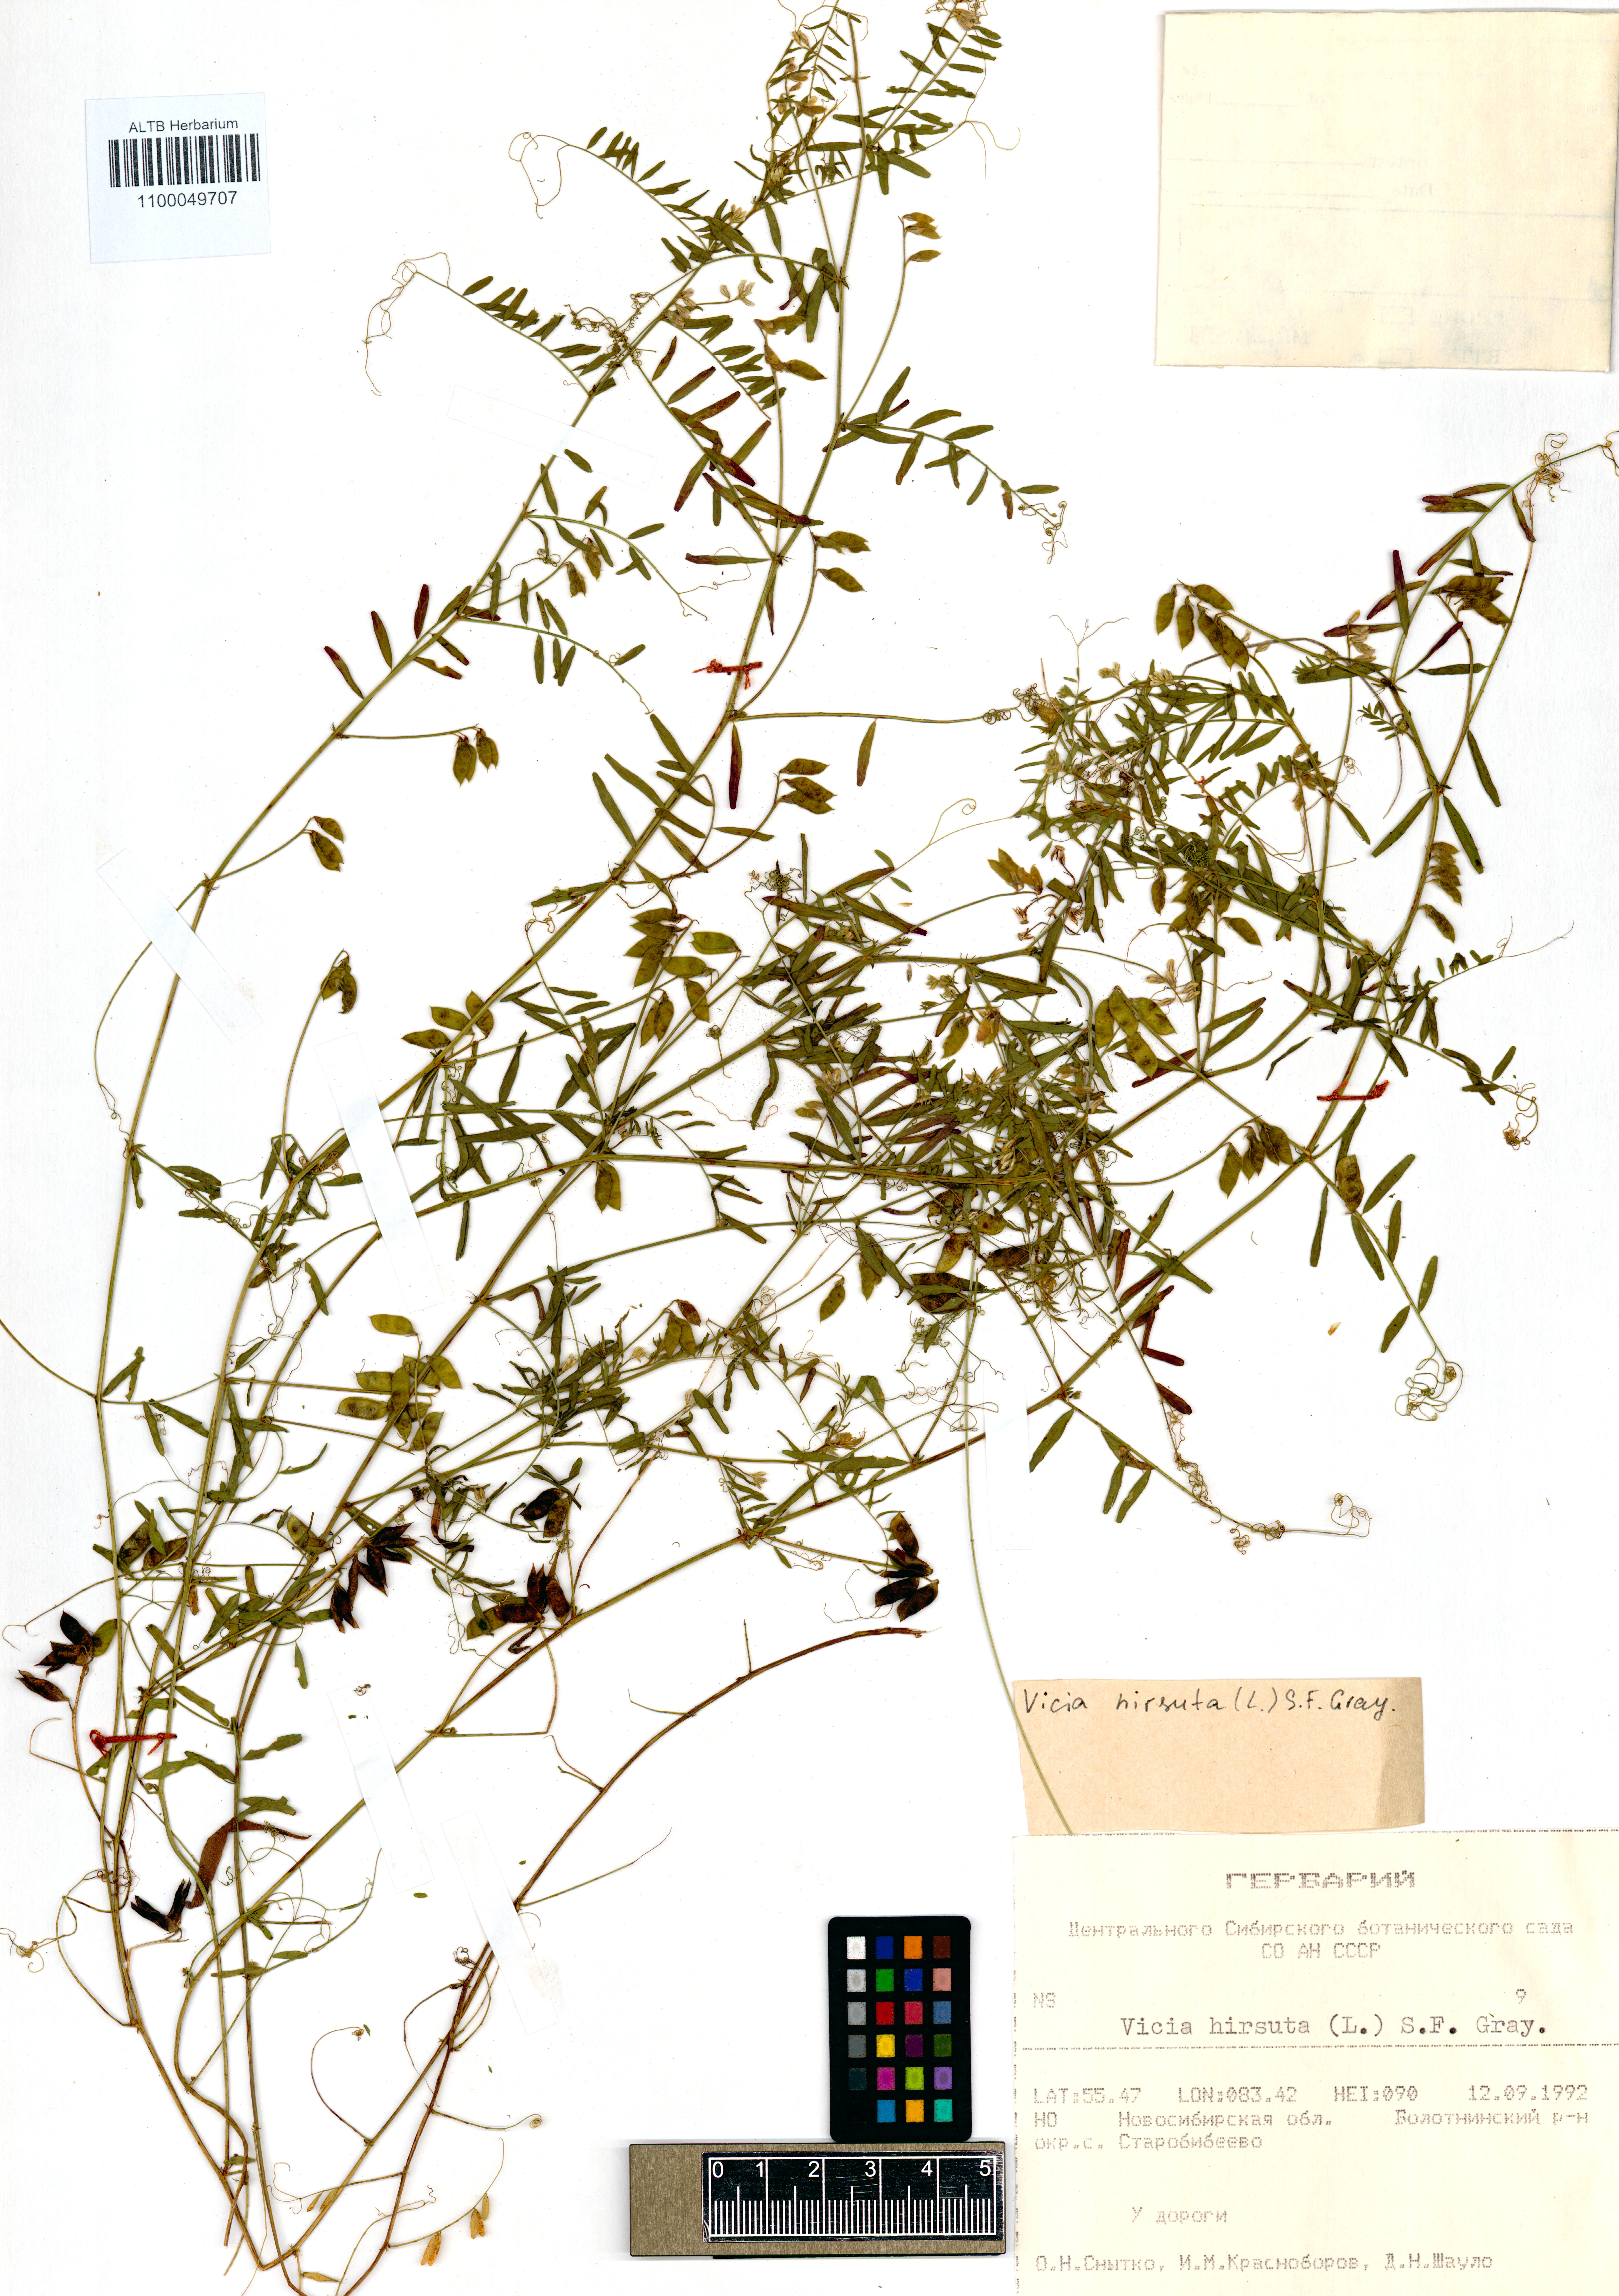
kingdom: Plantae
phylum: Tracheophyta
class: Magnoliopsida
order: Fabales
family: Fabaceae
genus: Vicia
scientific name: Vicia hirsuta
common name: Tiny vetch
